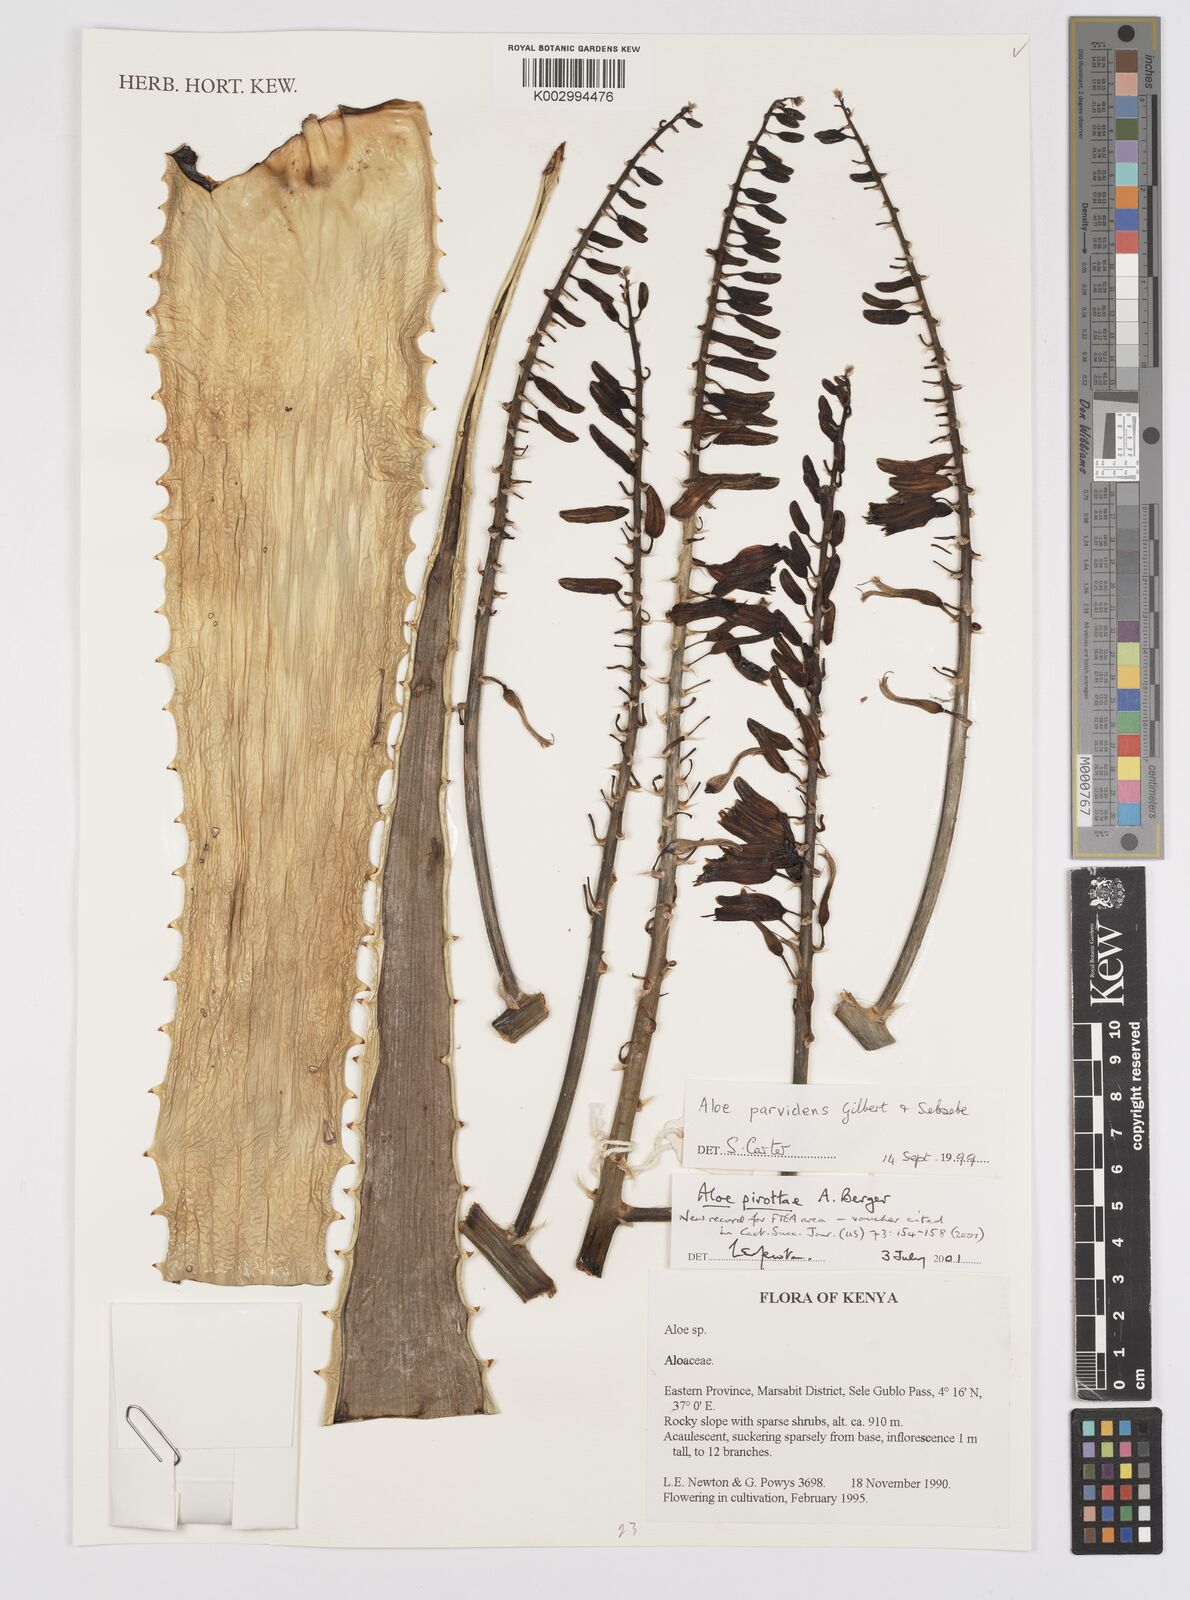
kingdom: Plantae
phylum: Tracheophyta
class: Liliopsida
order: Asparagales
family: Asphodelaceae
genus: Aloe
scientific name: Aloe pirottae
